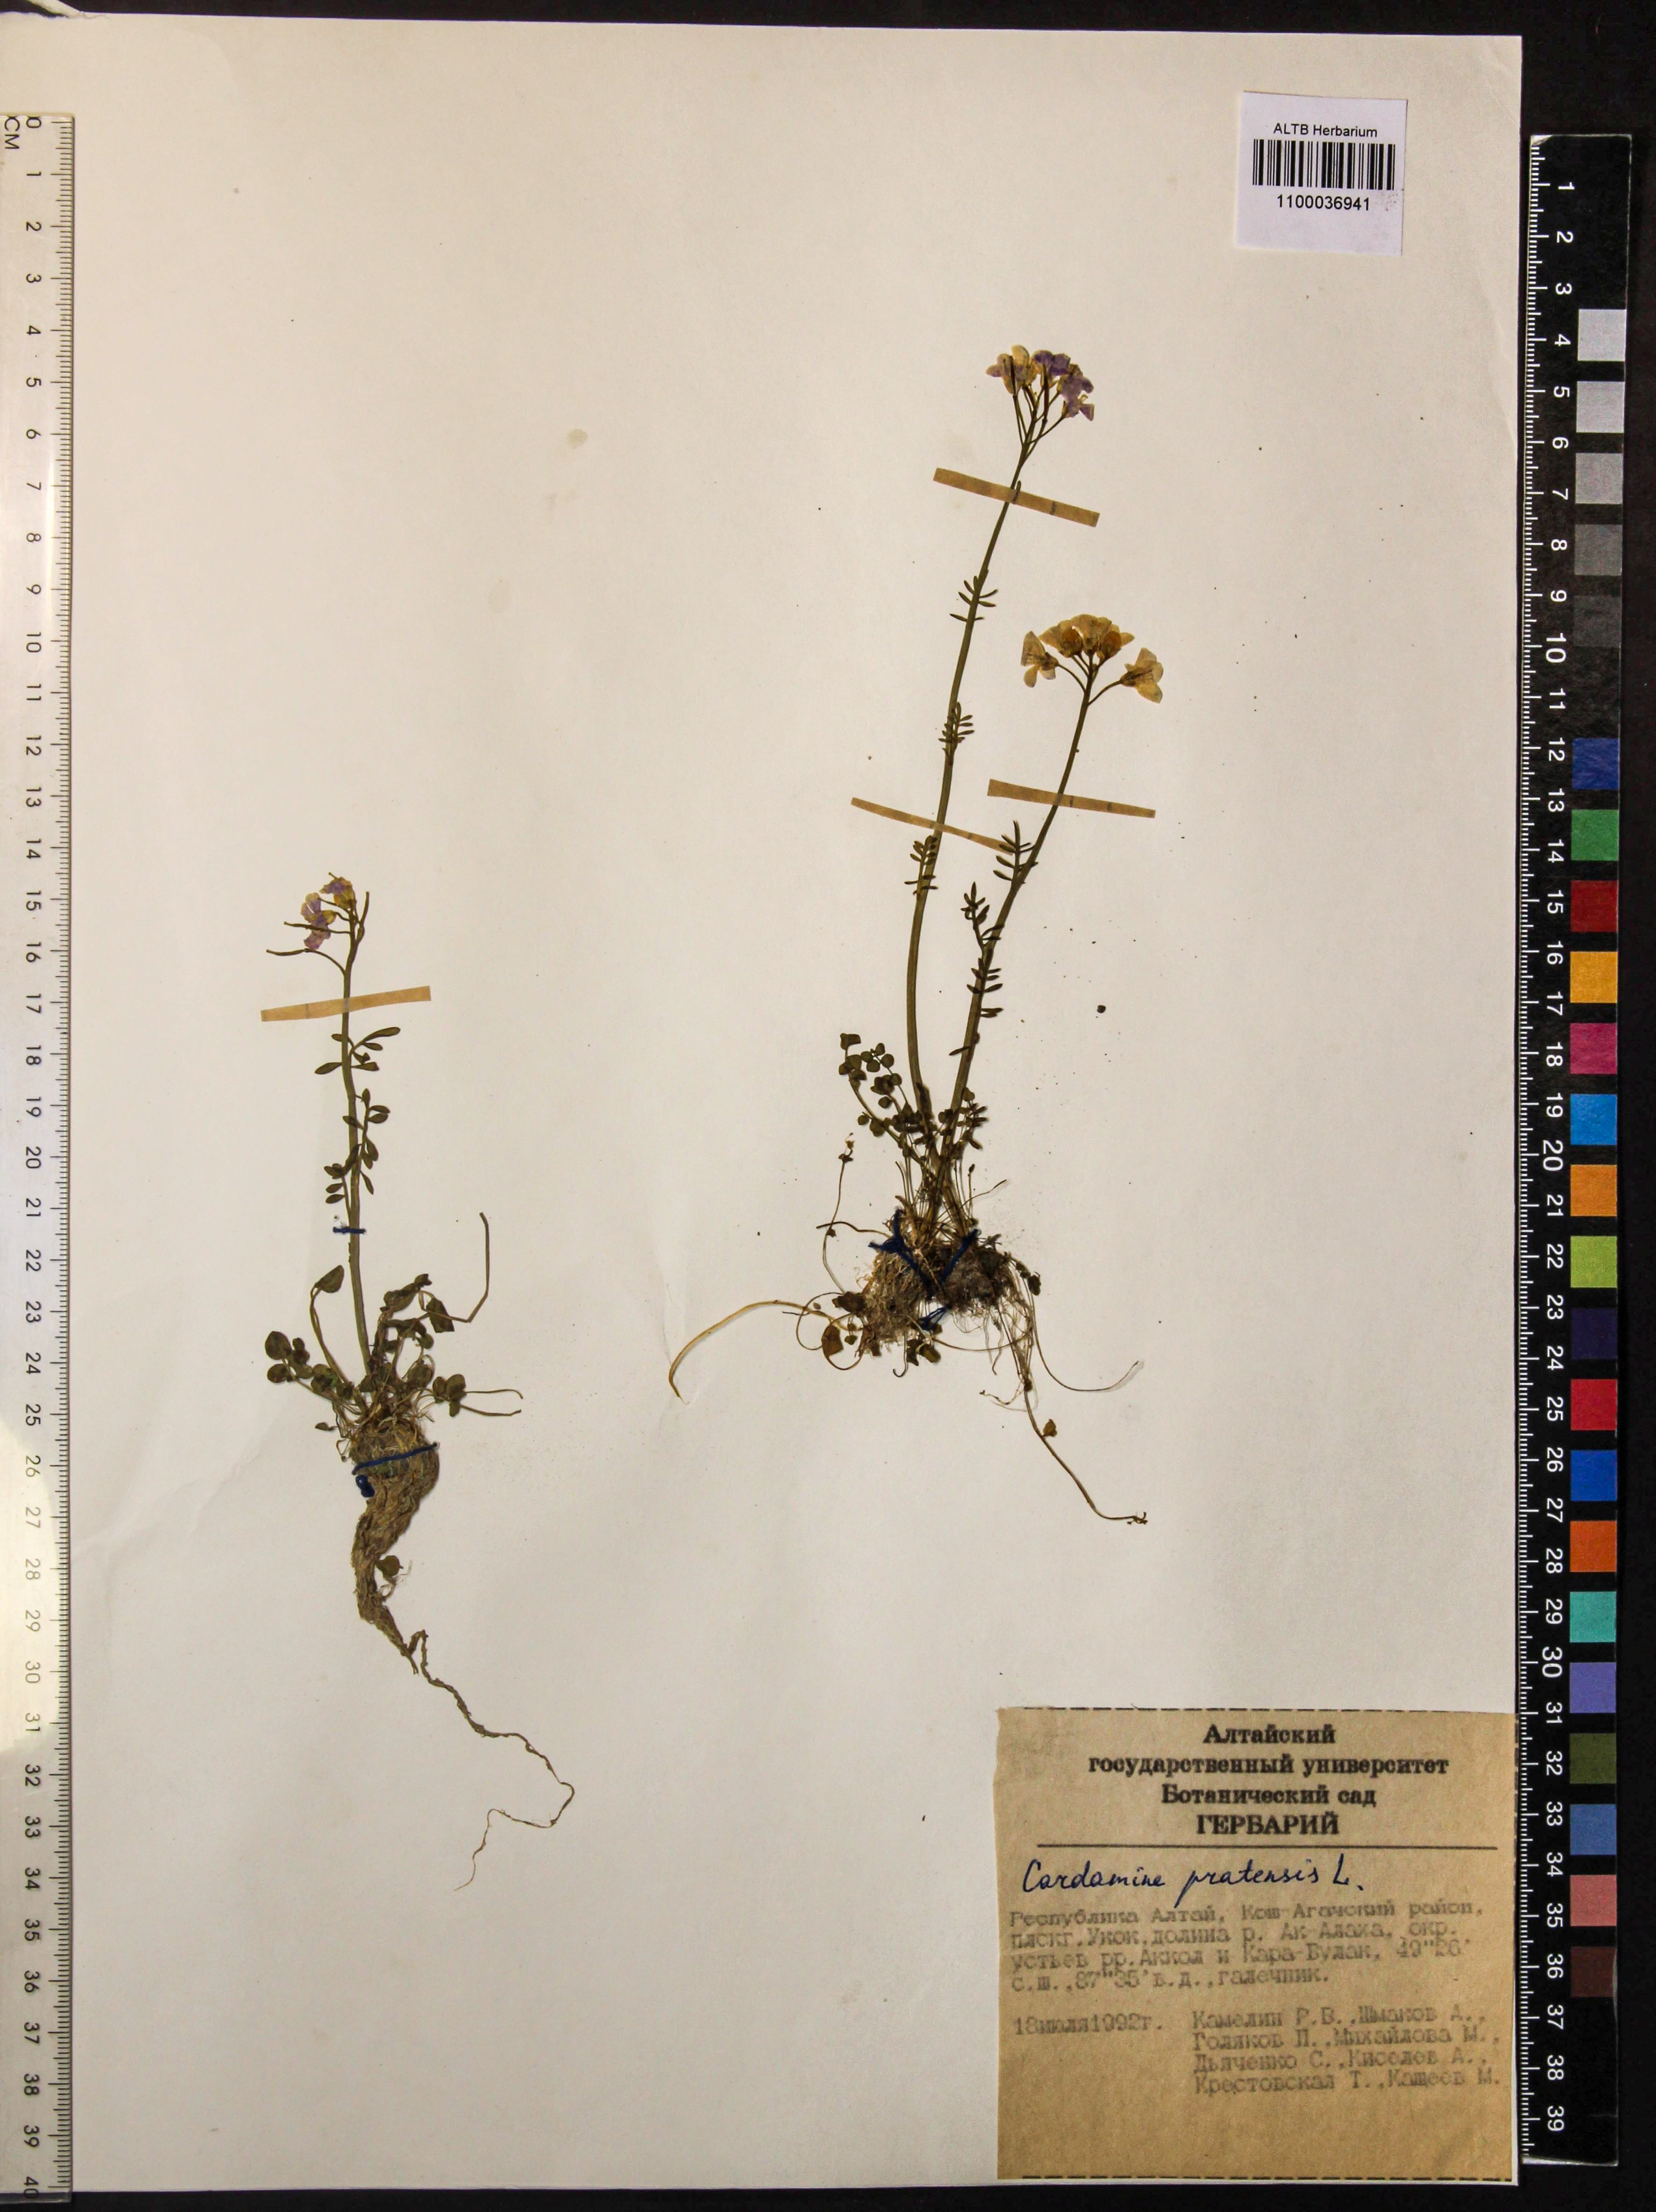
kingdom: Plantae
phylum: Tracheophyta
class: Magnoliopsida
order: Brassicales
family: Brassicaceae
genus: Cardamine
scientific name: Cardamine pratensis
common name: Cuckoo flower
